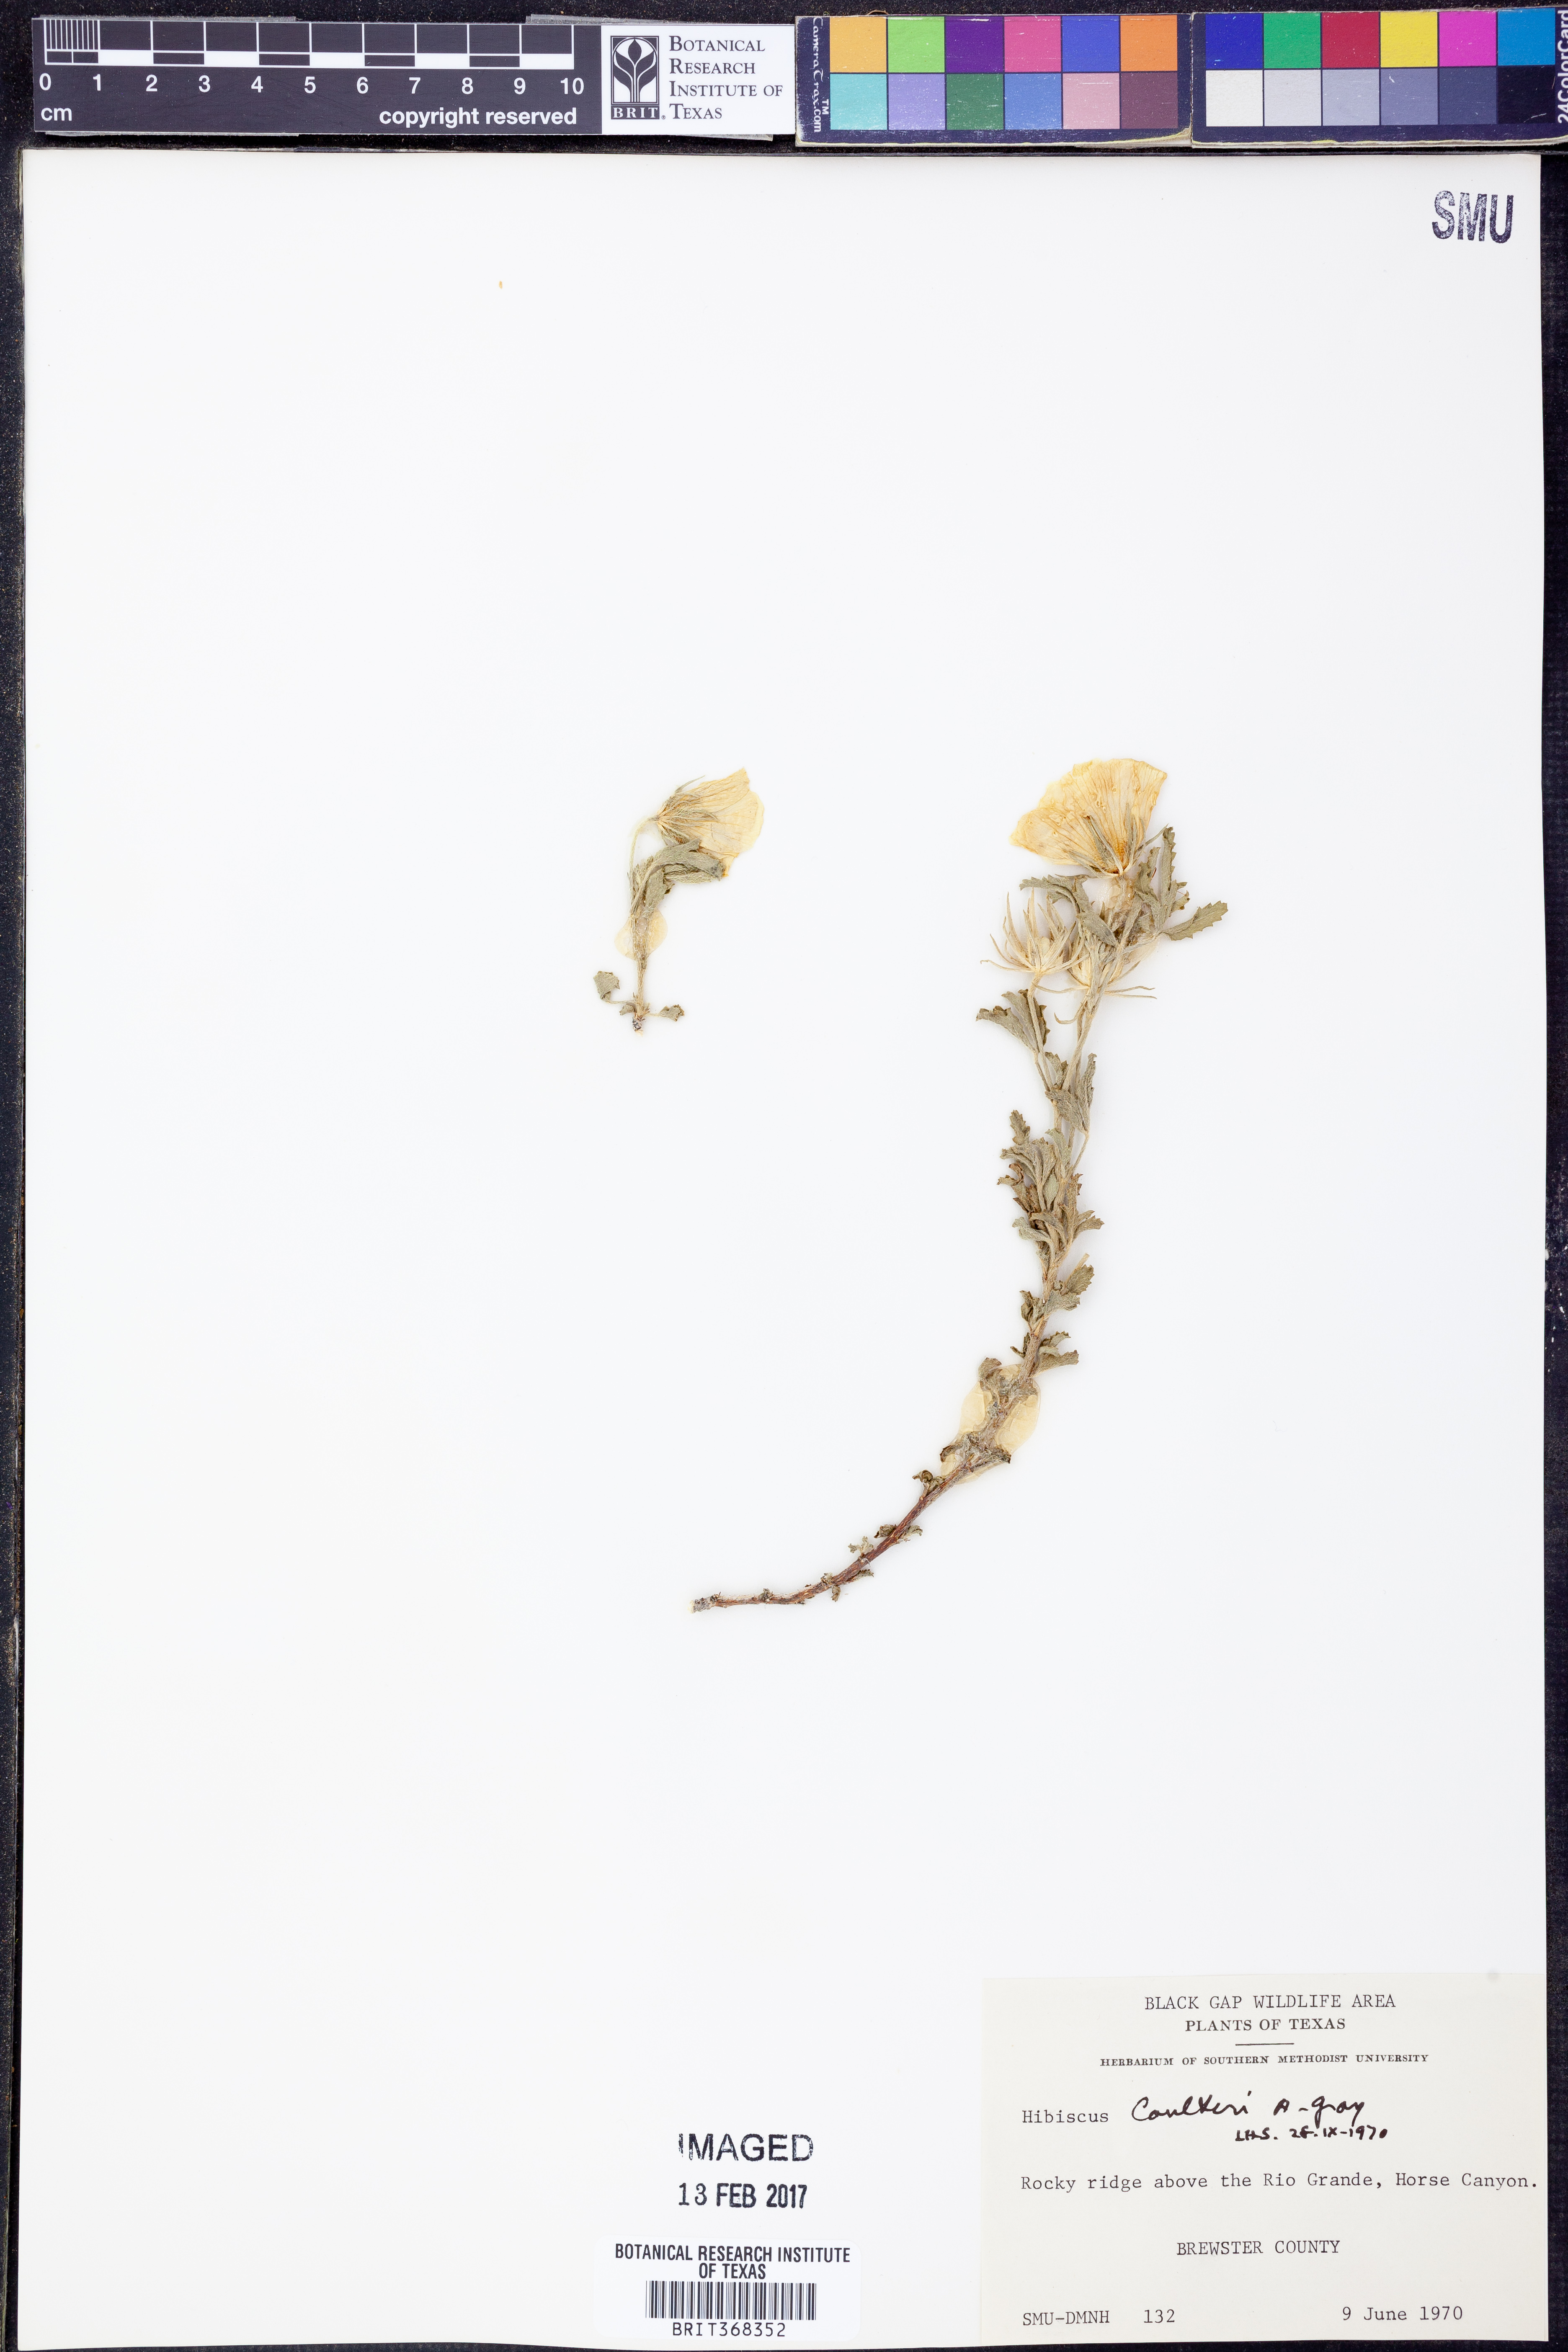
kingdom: Plantae
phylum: Tracheophyta
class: Magnoliopsida
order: Malvales
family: Malvaceae
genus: Hibiscus
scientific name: Hibiscus coulteri
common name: Desert rose-mallow
